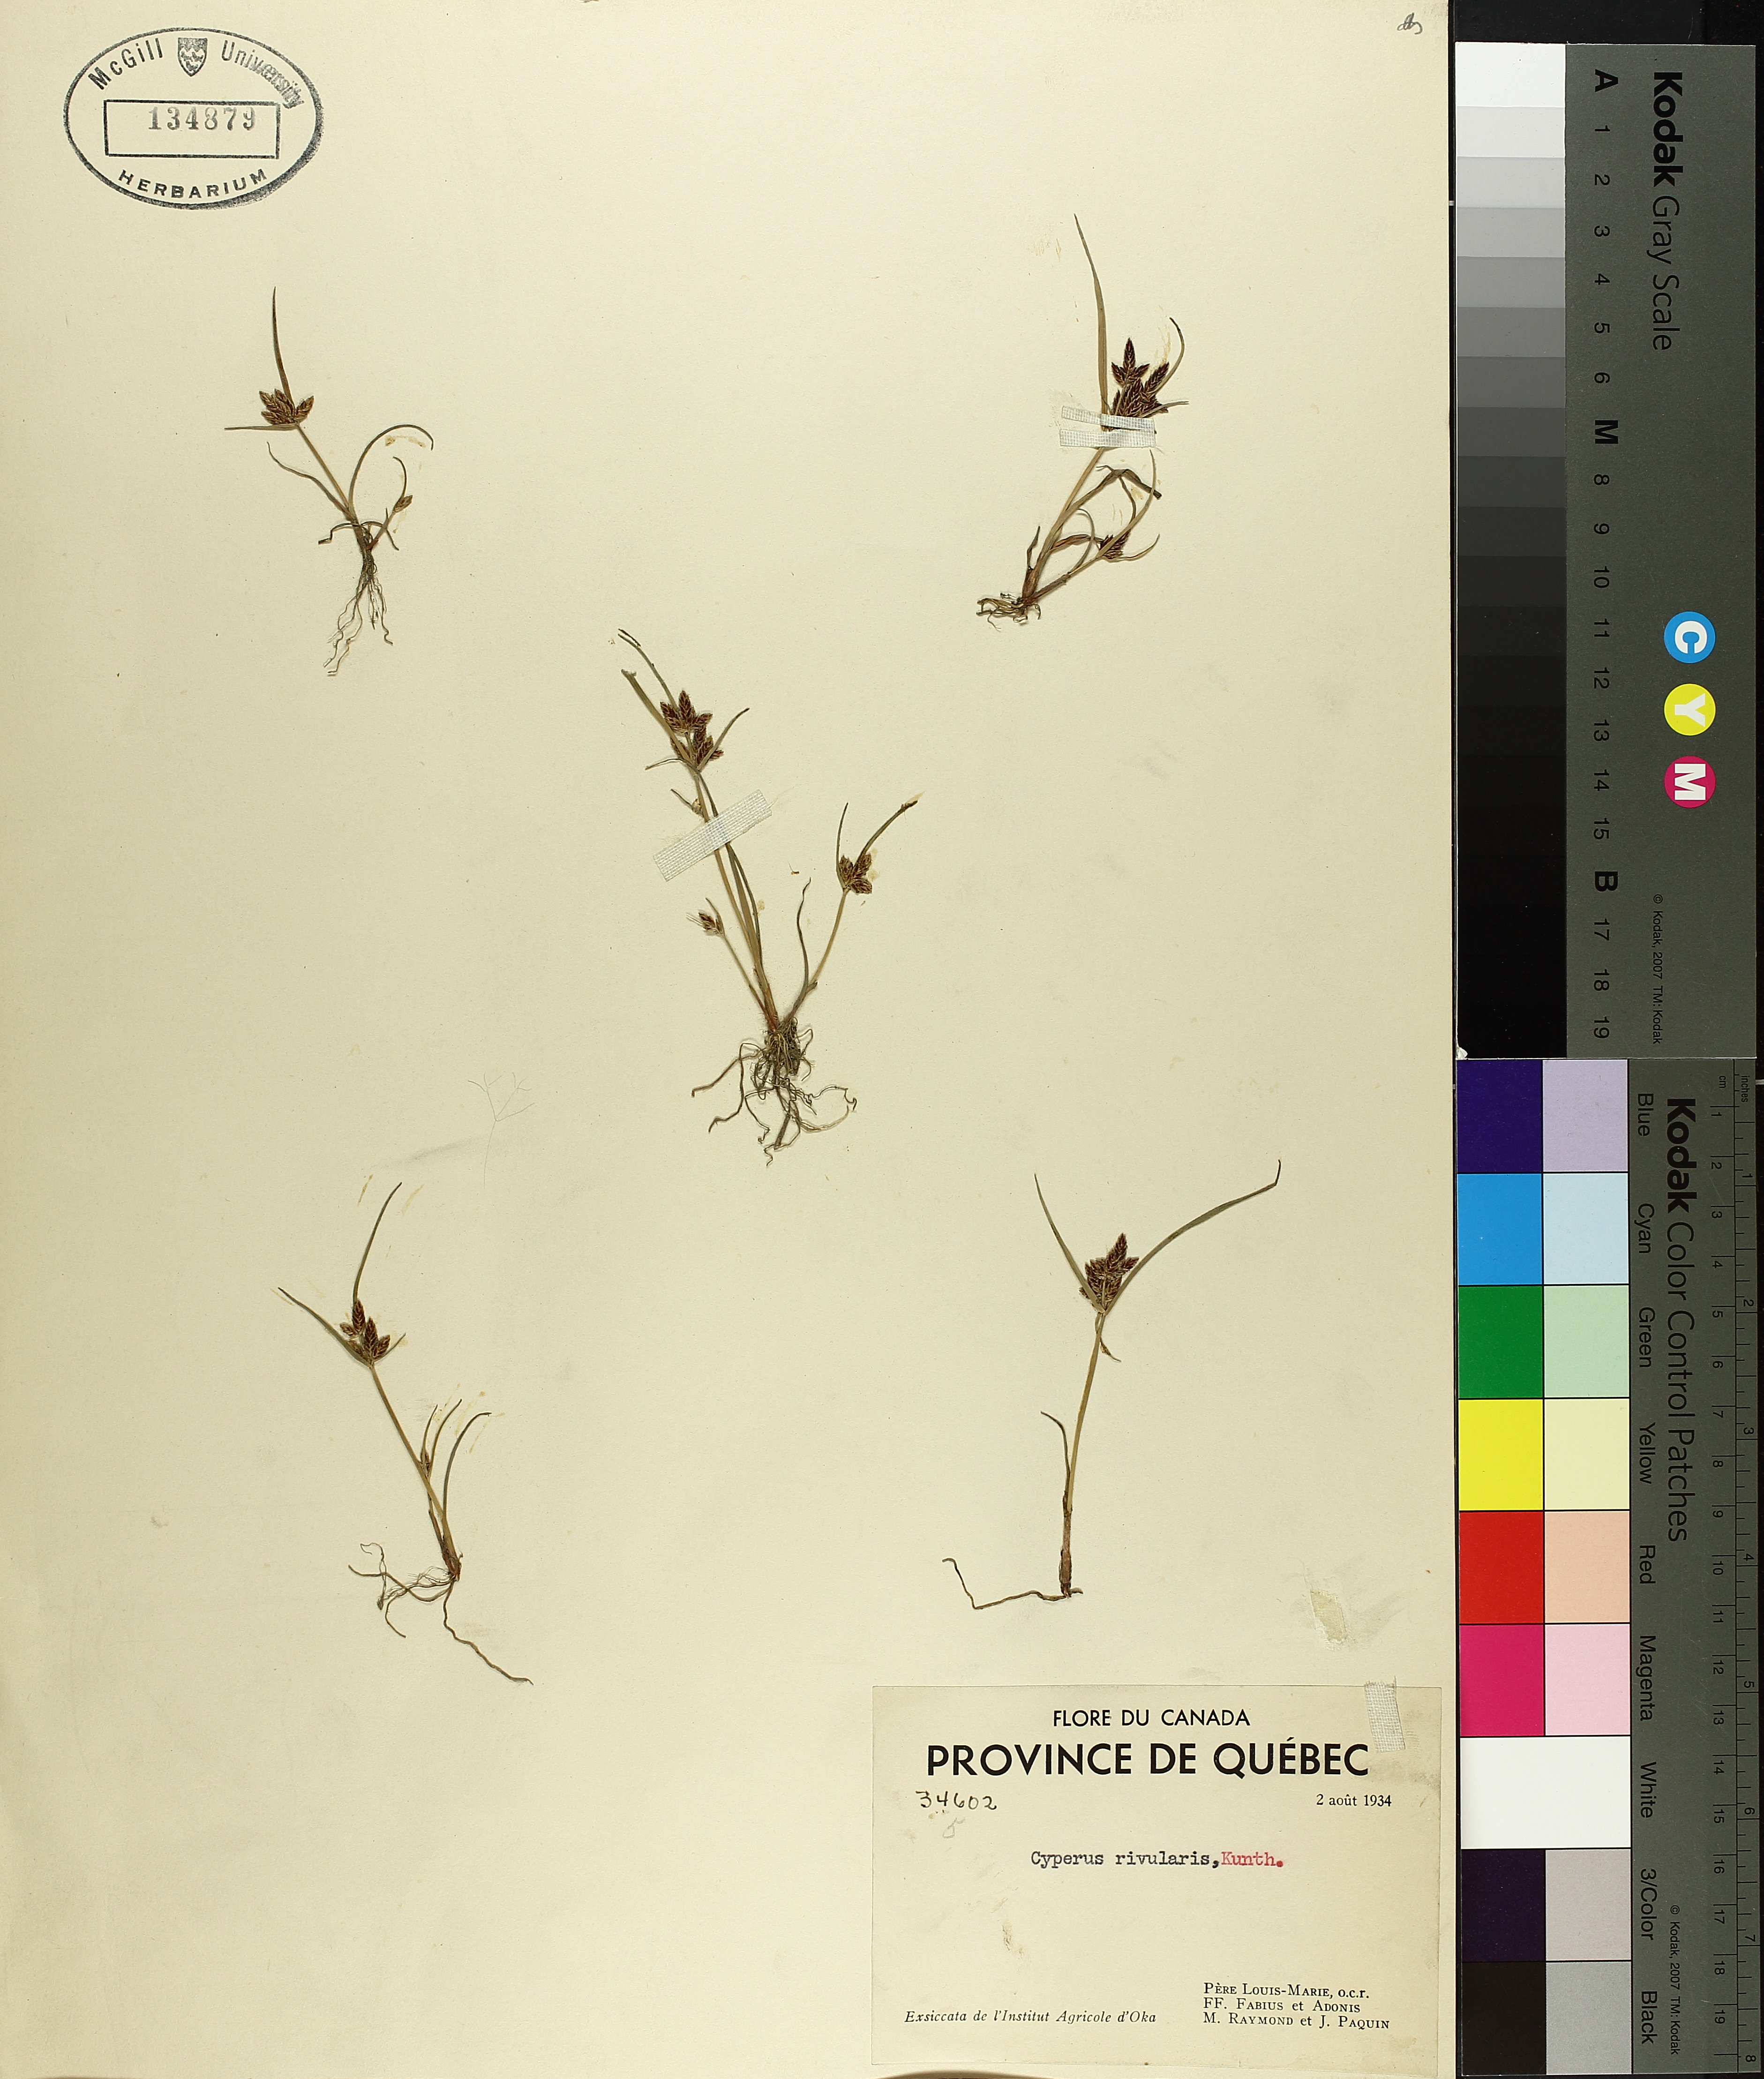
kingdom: Plantae
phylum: Tracheophyta
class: Liliopsida
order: Poales
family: Cyperaceae
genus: Cyperus
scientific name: Cyperus bipartitus
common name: Brook flatsedge
